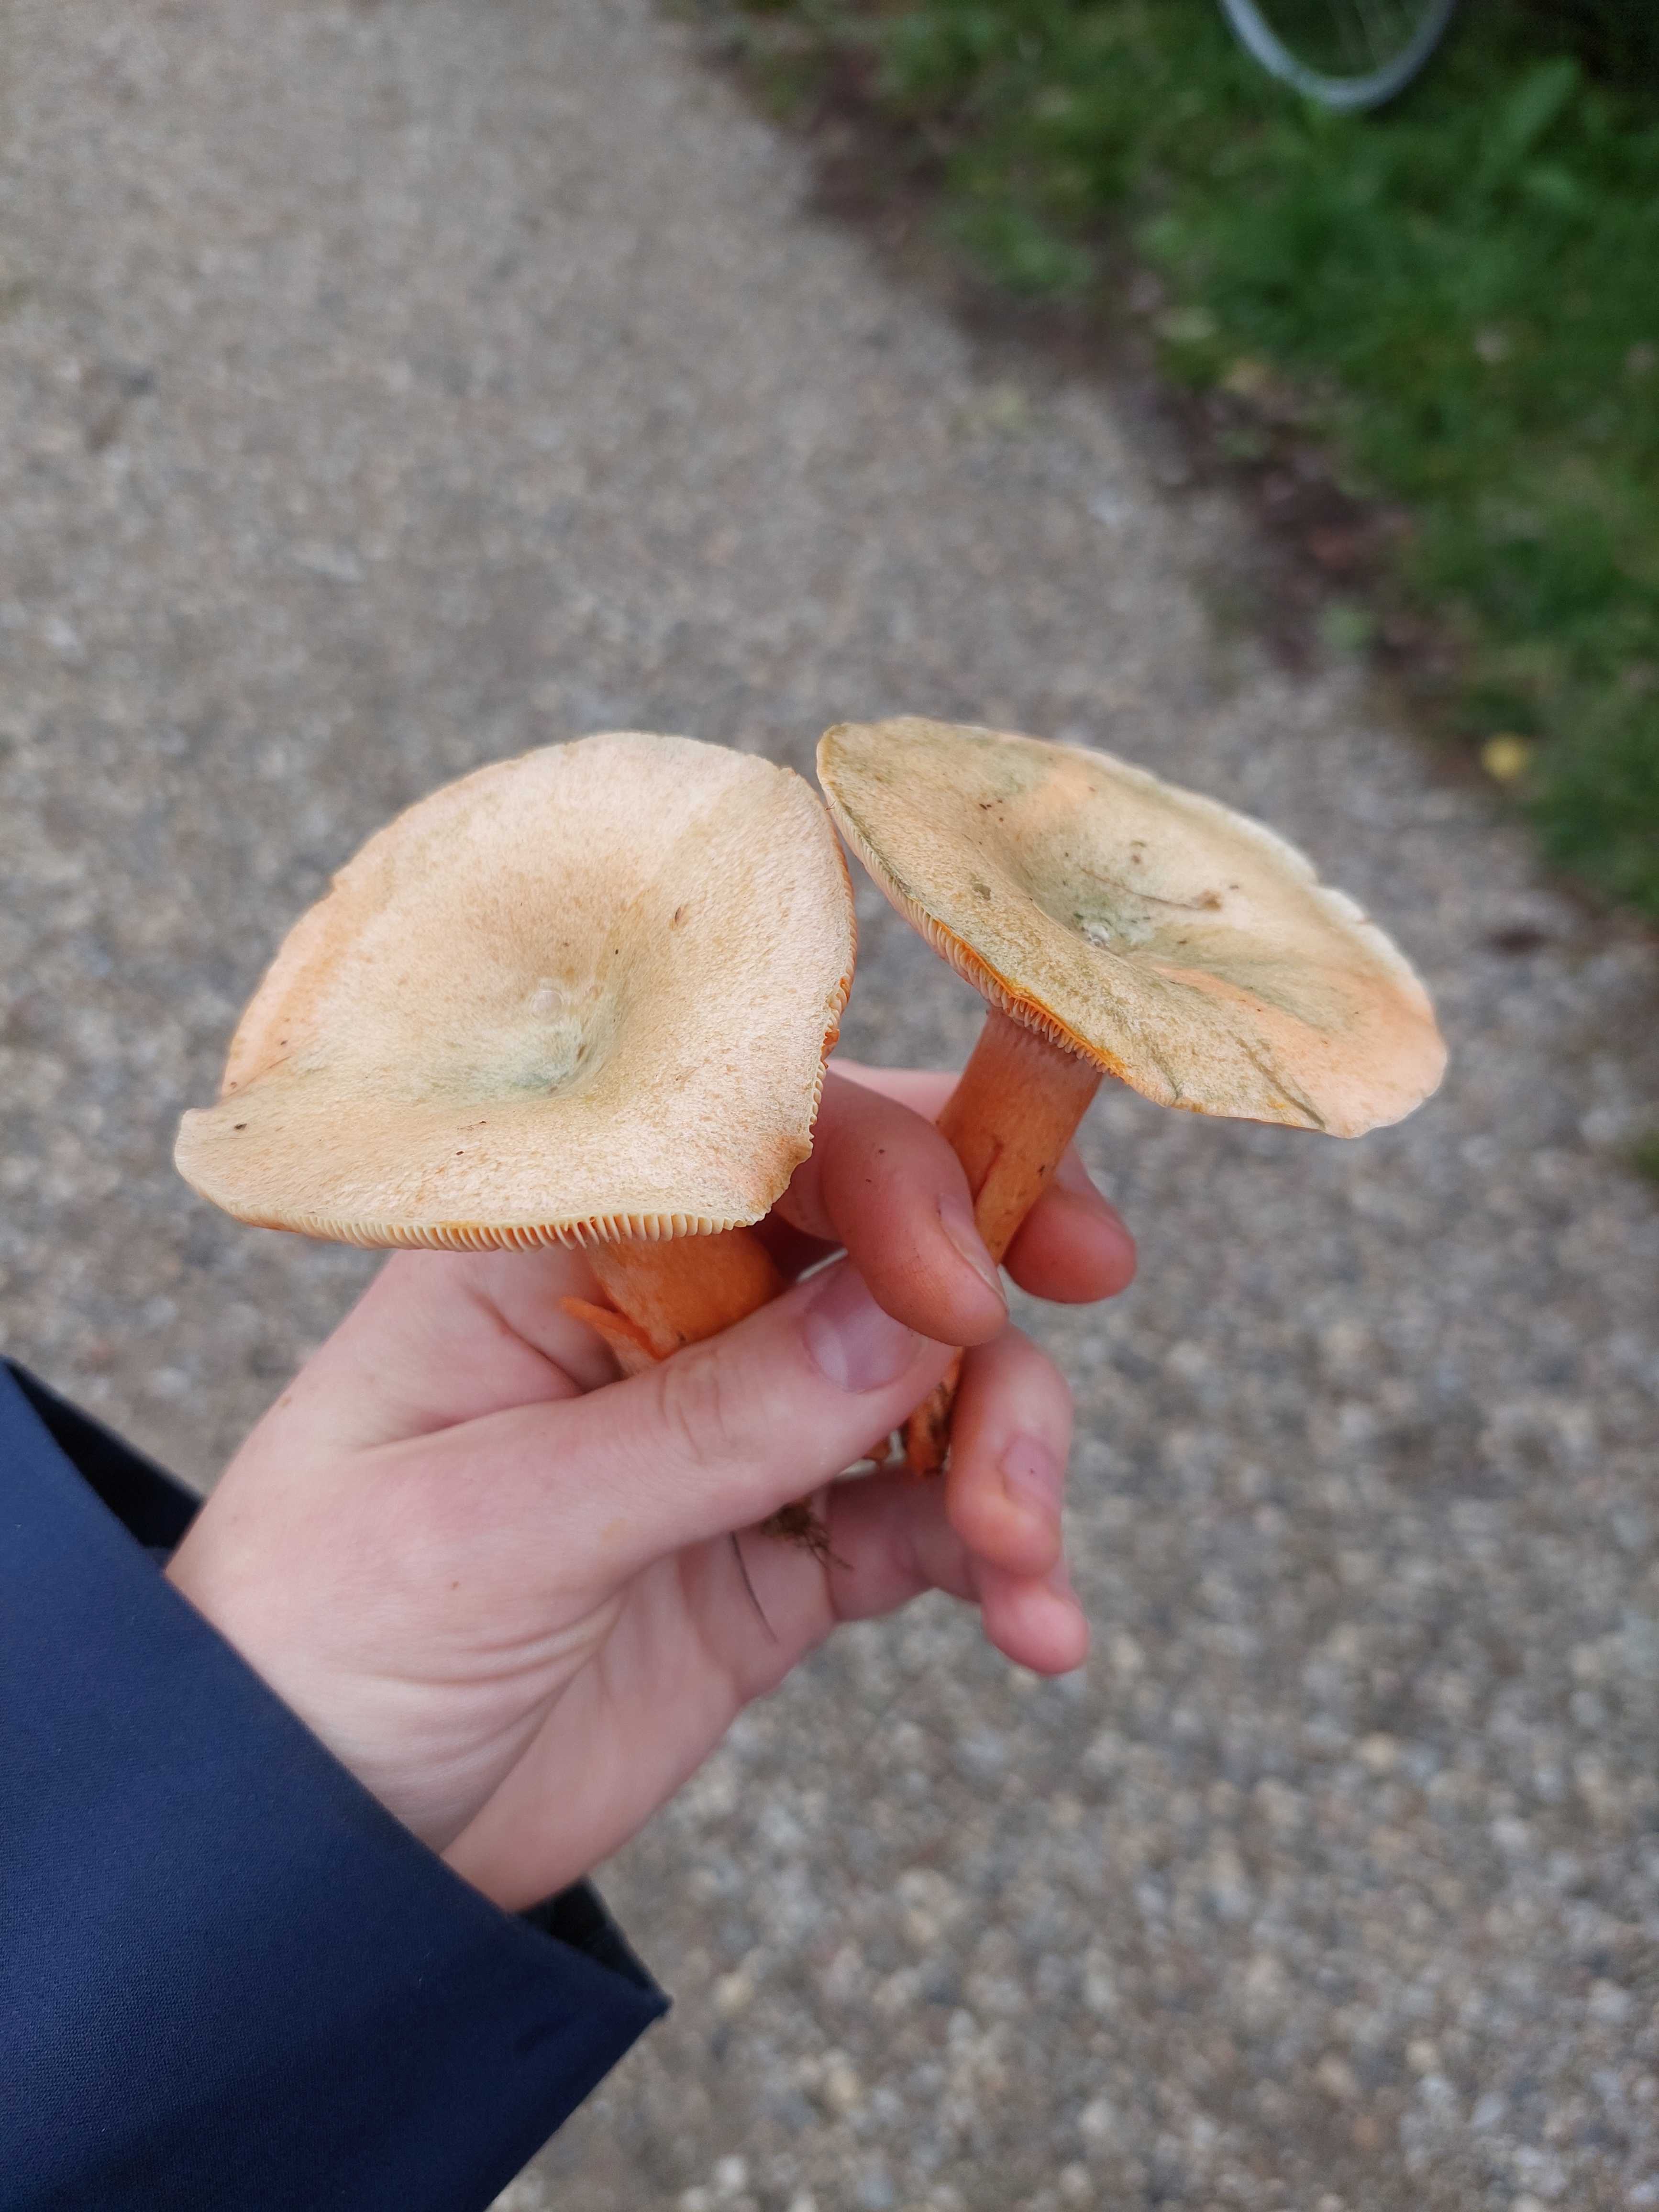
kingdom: Fungi
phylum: Basidiomycota
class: Agaricomycetes
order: Russulales
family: Russulaceae
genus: Lactarius
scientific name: Lactarius
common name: mælkehat
